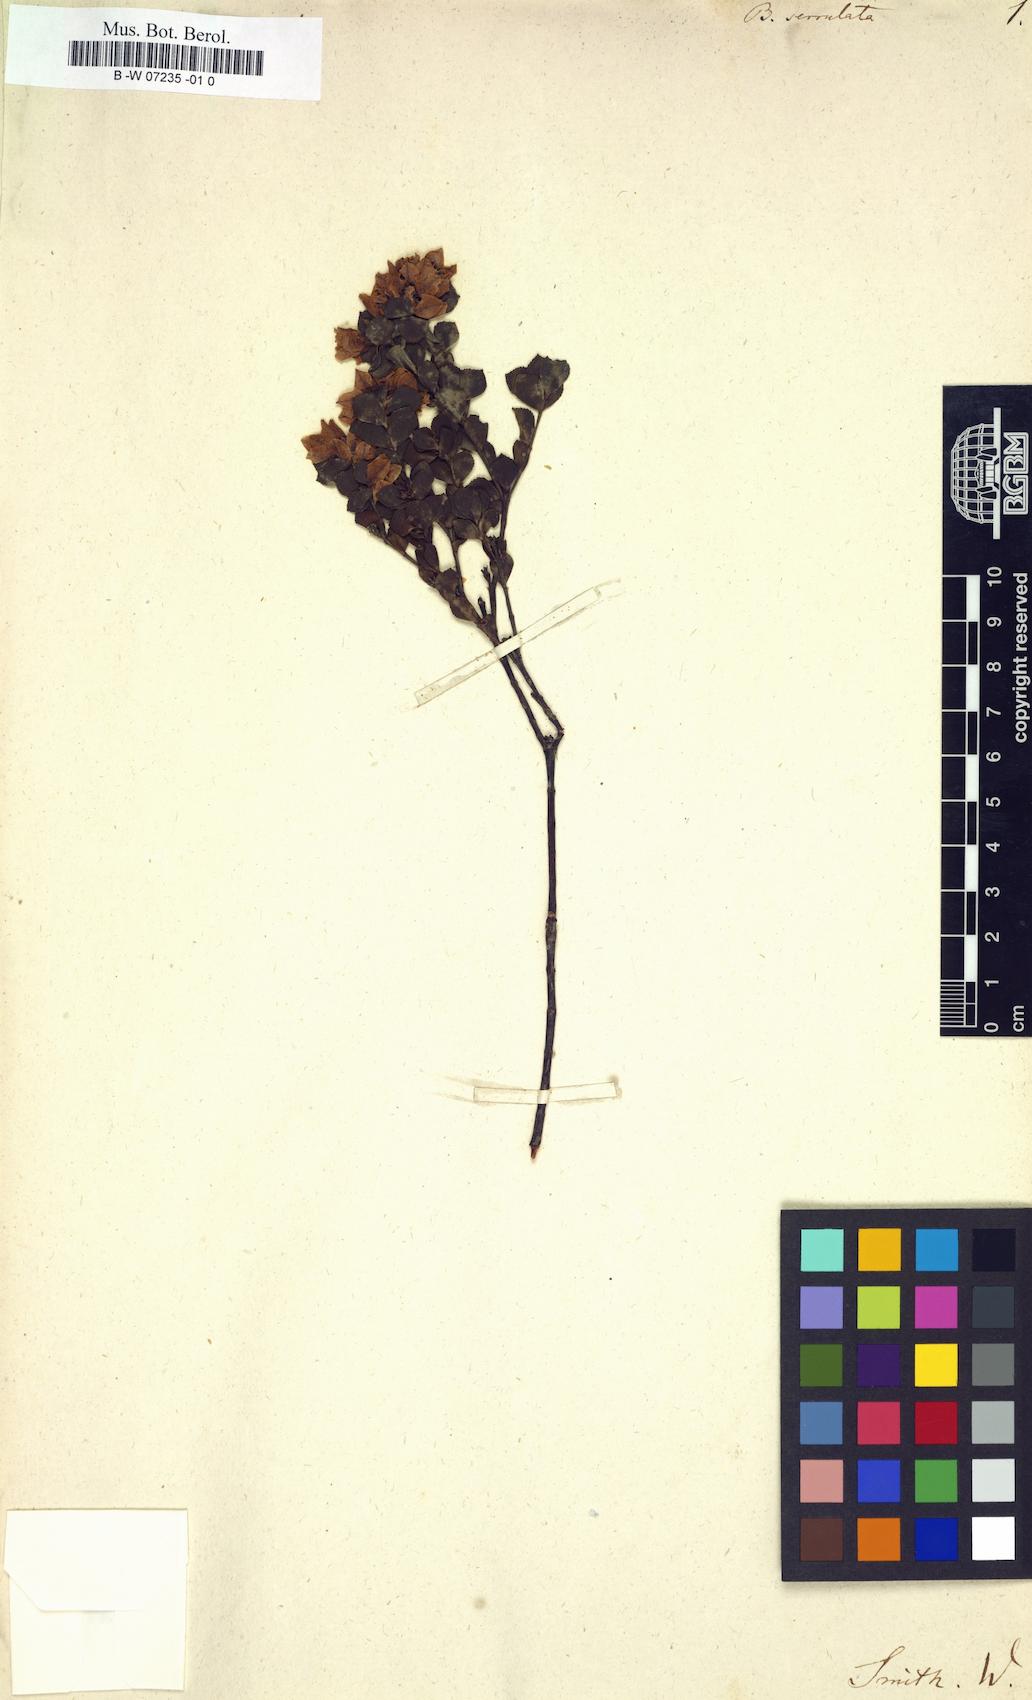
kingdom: Plantae
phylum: Tracheophyta
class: Magnoliopsida
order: Sapindales
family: Rutaceae
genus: Boronia
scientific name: Boronia serrulata
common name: Rose boronia
